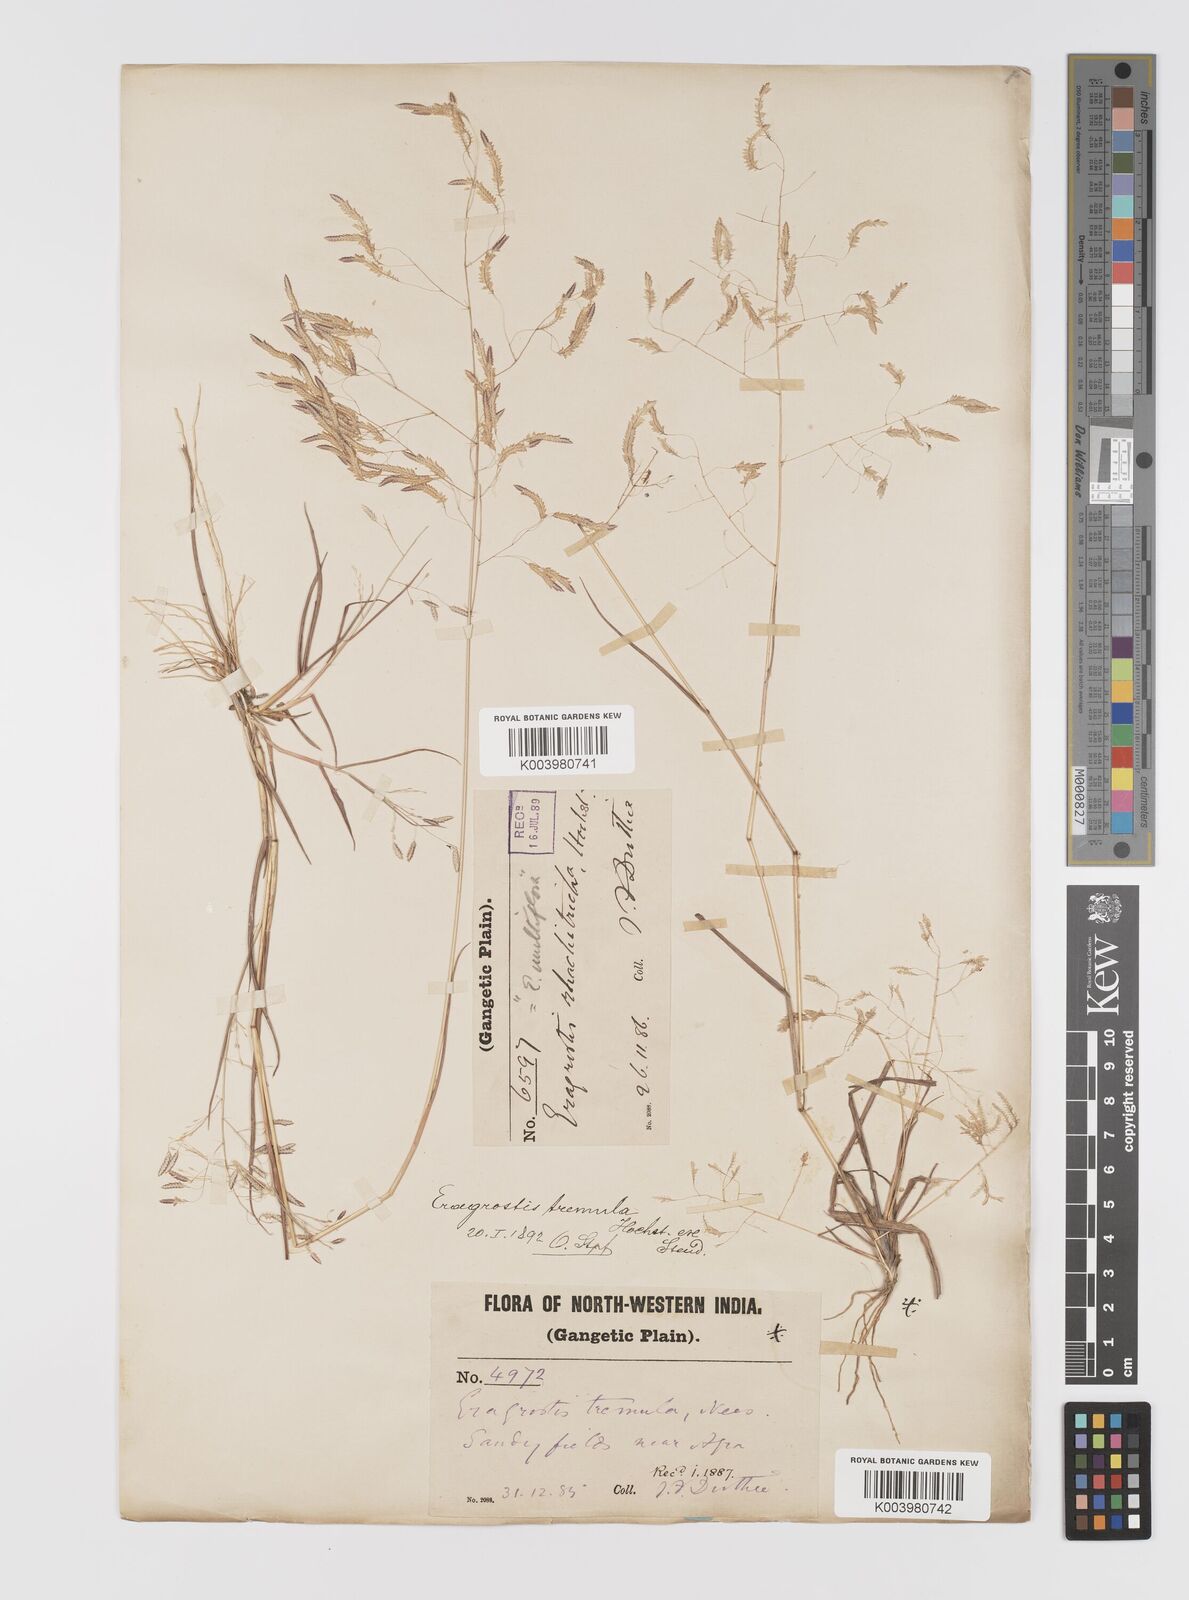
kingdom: Plantae
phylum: Tracheophyta
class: Liliopsida
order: Poales
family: Poaceae
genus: Eragrostis
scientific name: Eragrostis tremula
